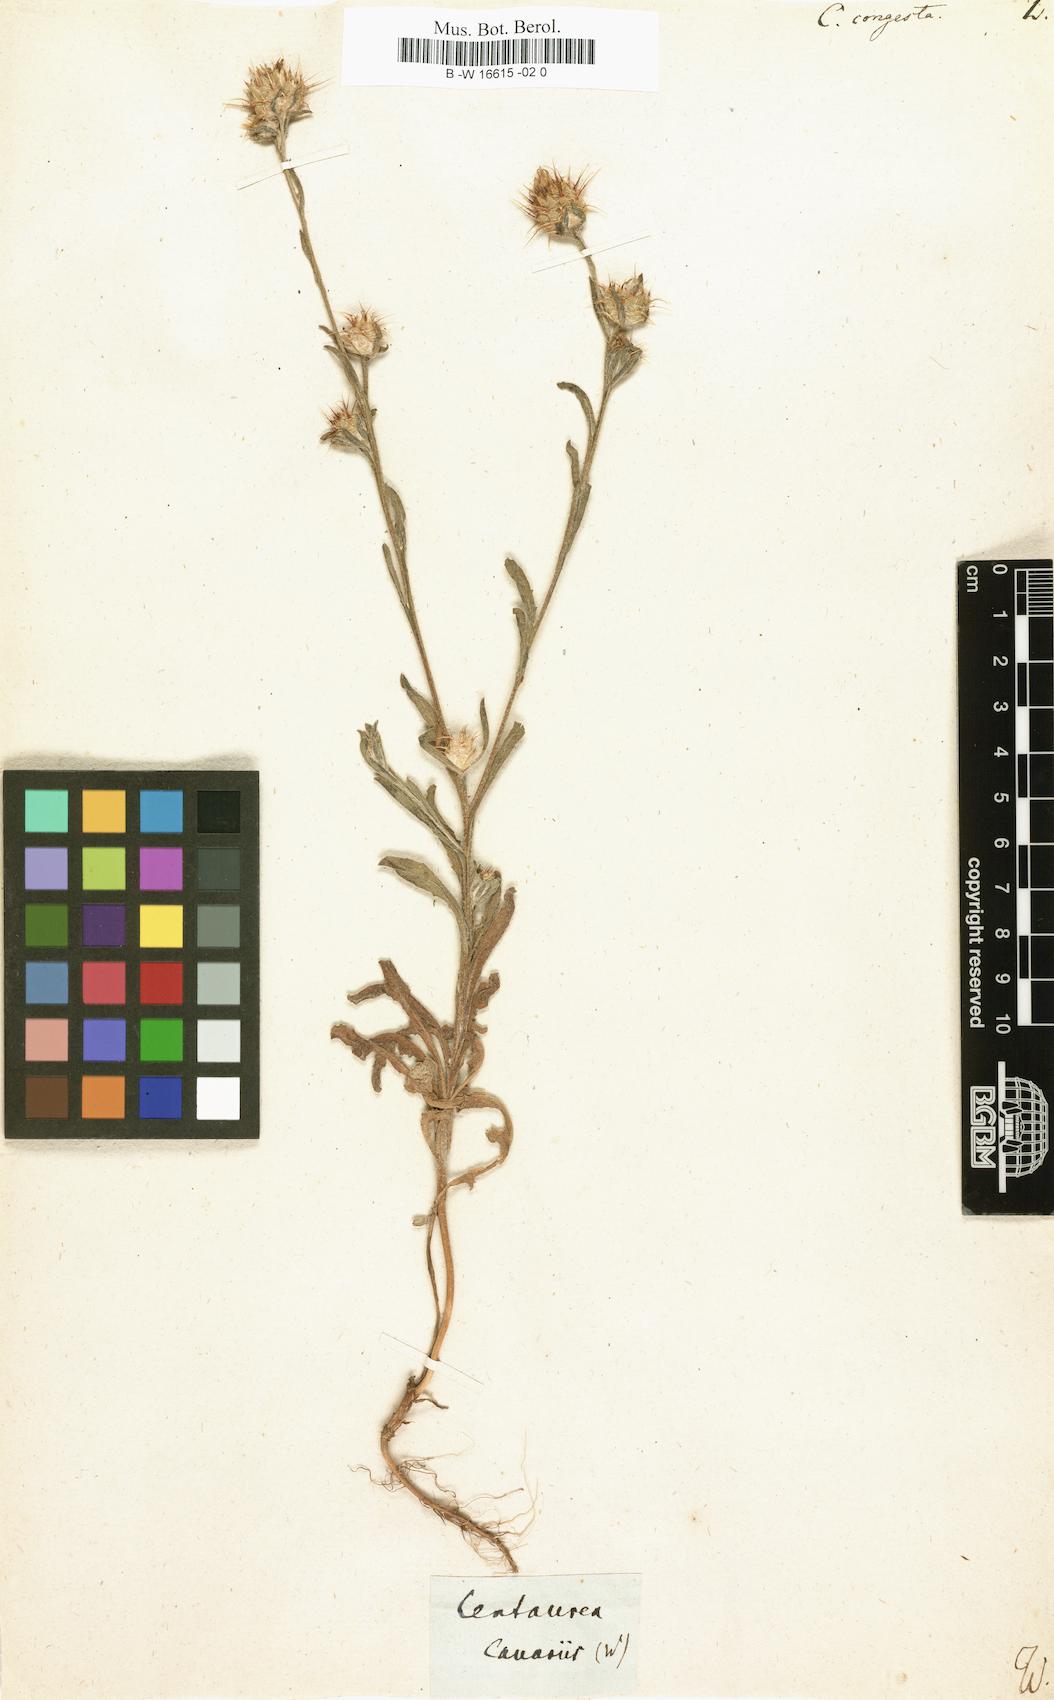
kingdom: Plantae
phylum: Tracheophyta
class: Magnoliopsida
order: Asterales
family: Asteraceae
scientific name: Asteraceae
